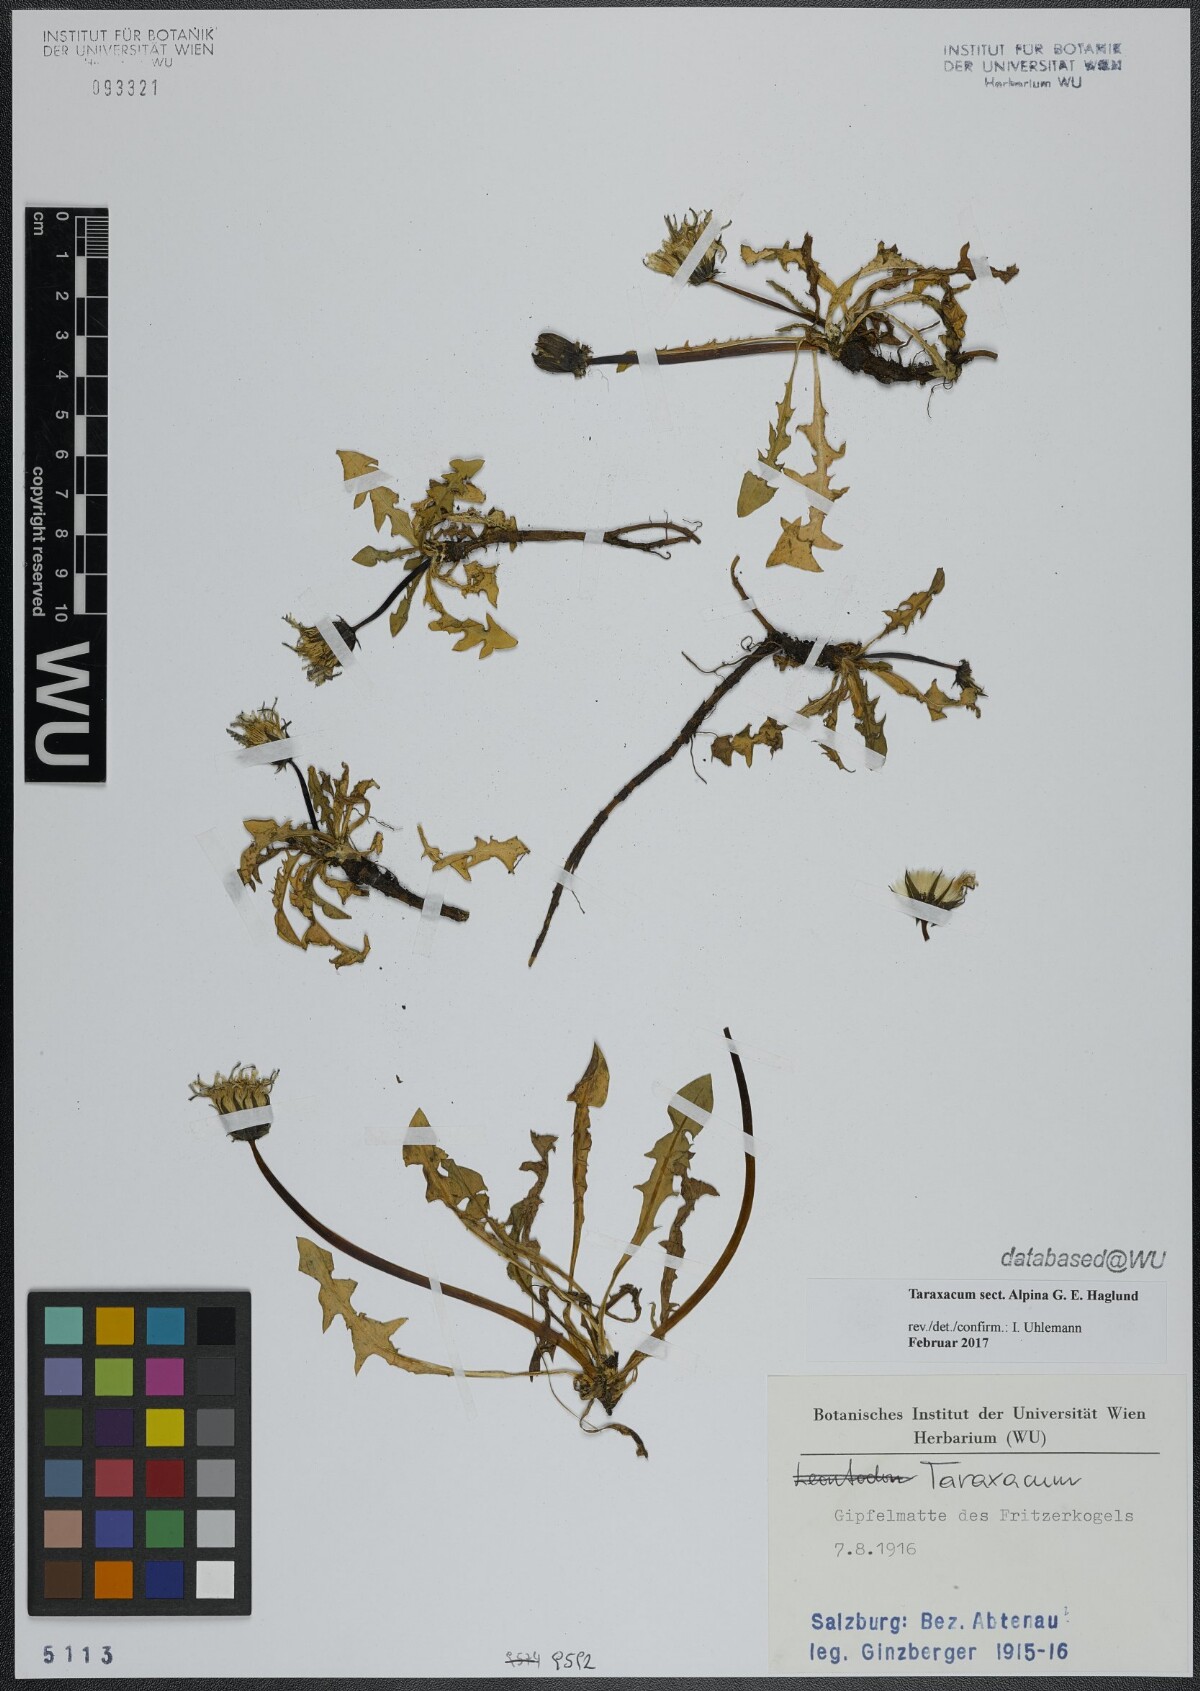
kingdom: Plantae
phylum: Tracheophyta
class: Magnoliopsida
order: Asterales
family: Asteraceae
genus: Taraxacum
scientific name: Taraxacum
